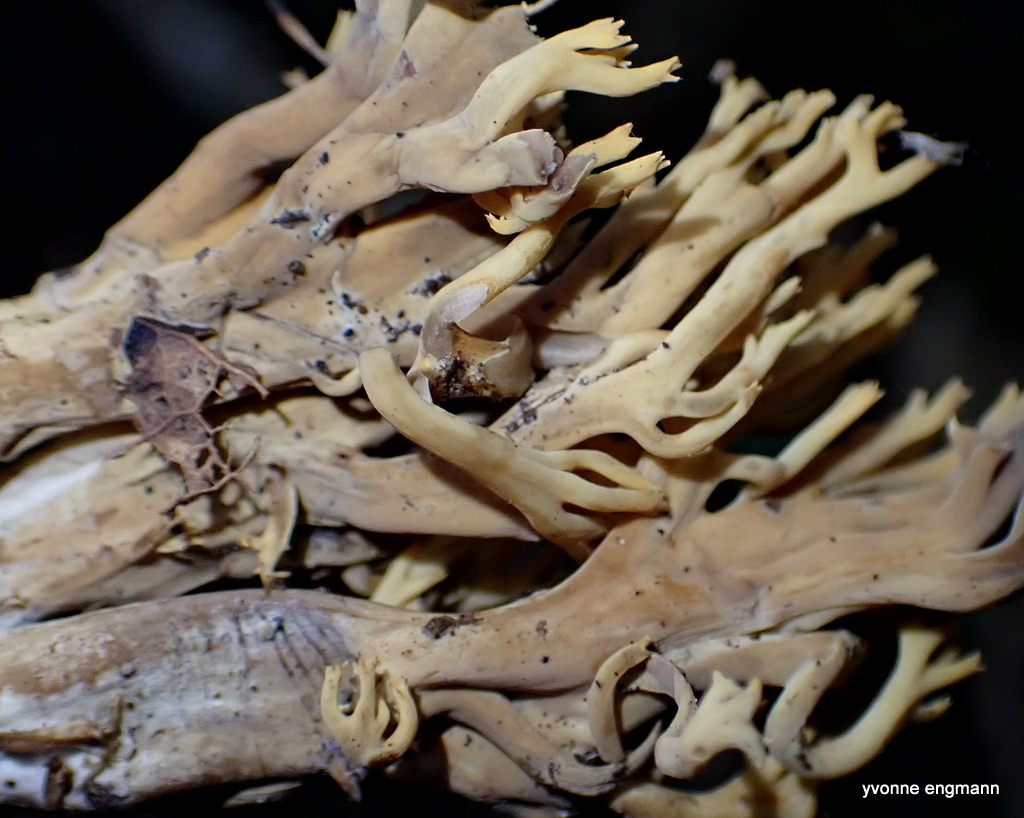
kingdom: Fungi
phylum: Basidiomycota
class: Agaricomycetes
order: Gomphales
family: Gomphaceae
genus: Ramaria
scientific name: Ramaria stricta
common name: rank koralsvamp
